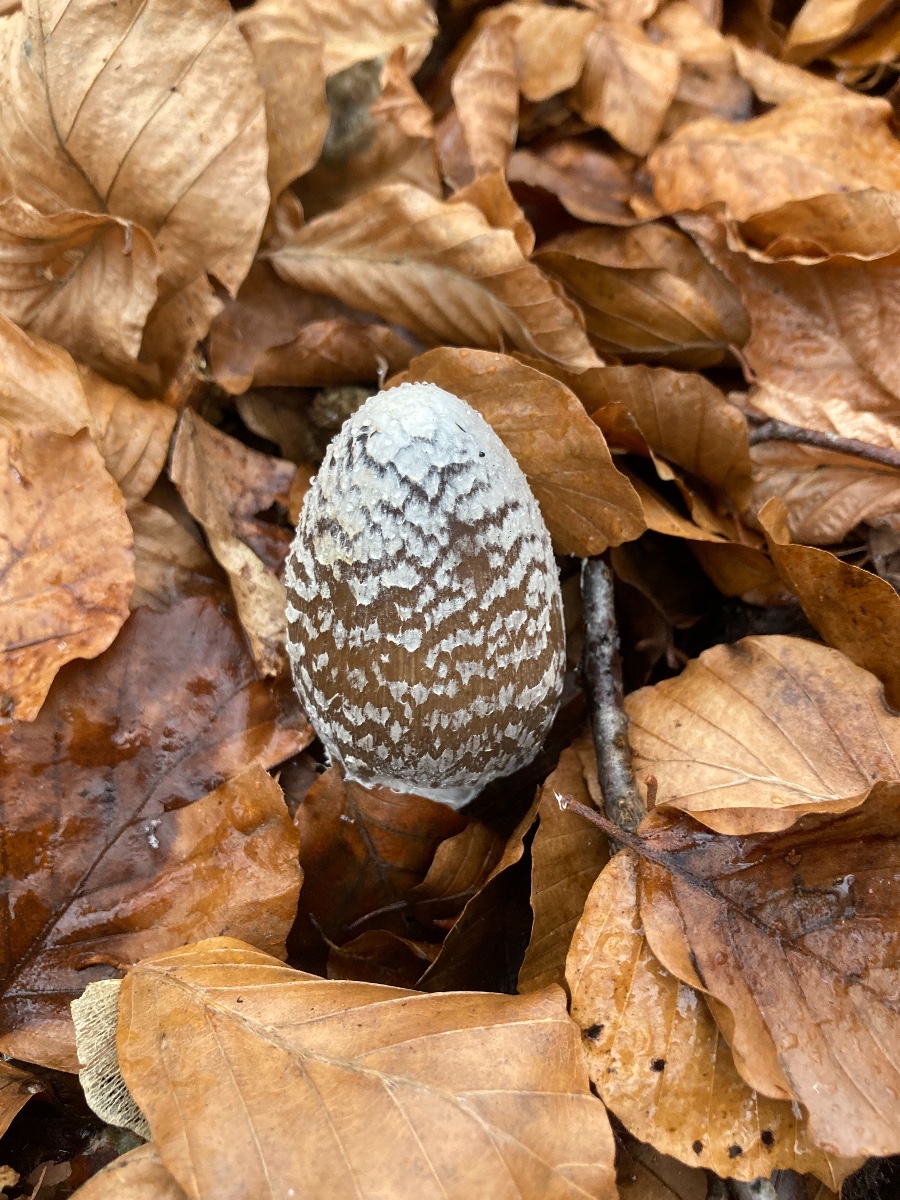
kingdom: Fungi
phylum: Basidiomycota
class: Agaricomycetes
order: Agaricales
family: Psathyrellaceae
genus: Coprinopsis
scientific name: Coprinopsis picacea
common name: skade-blækhat
